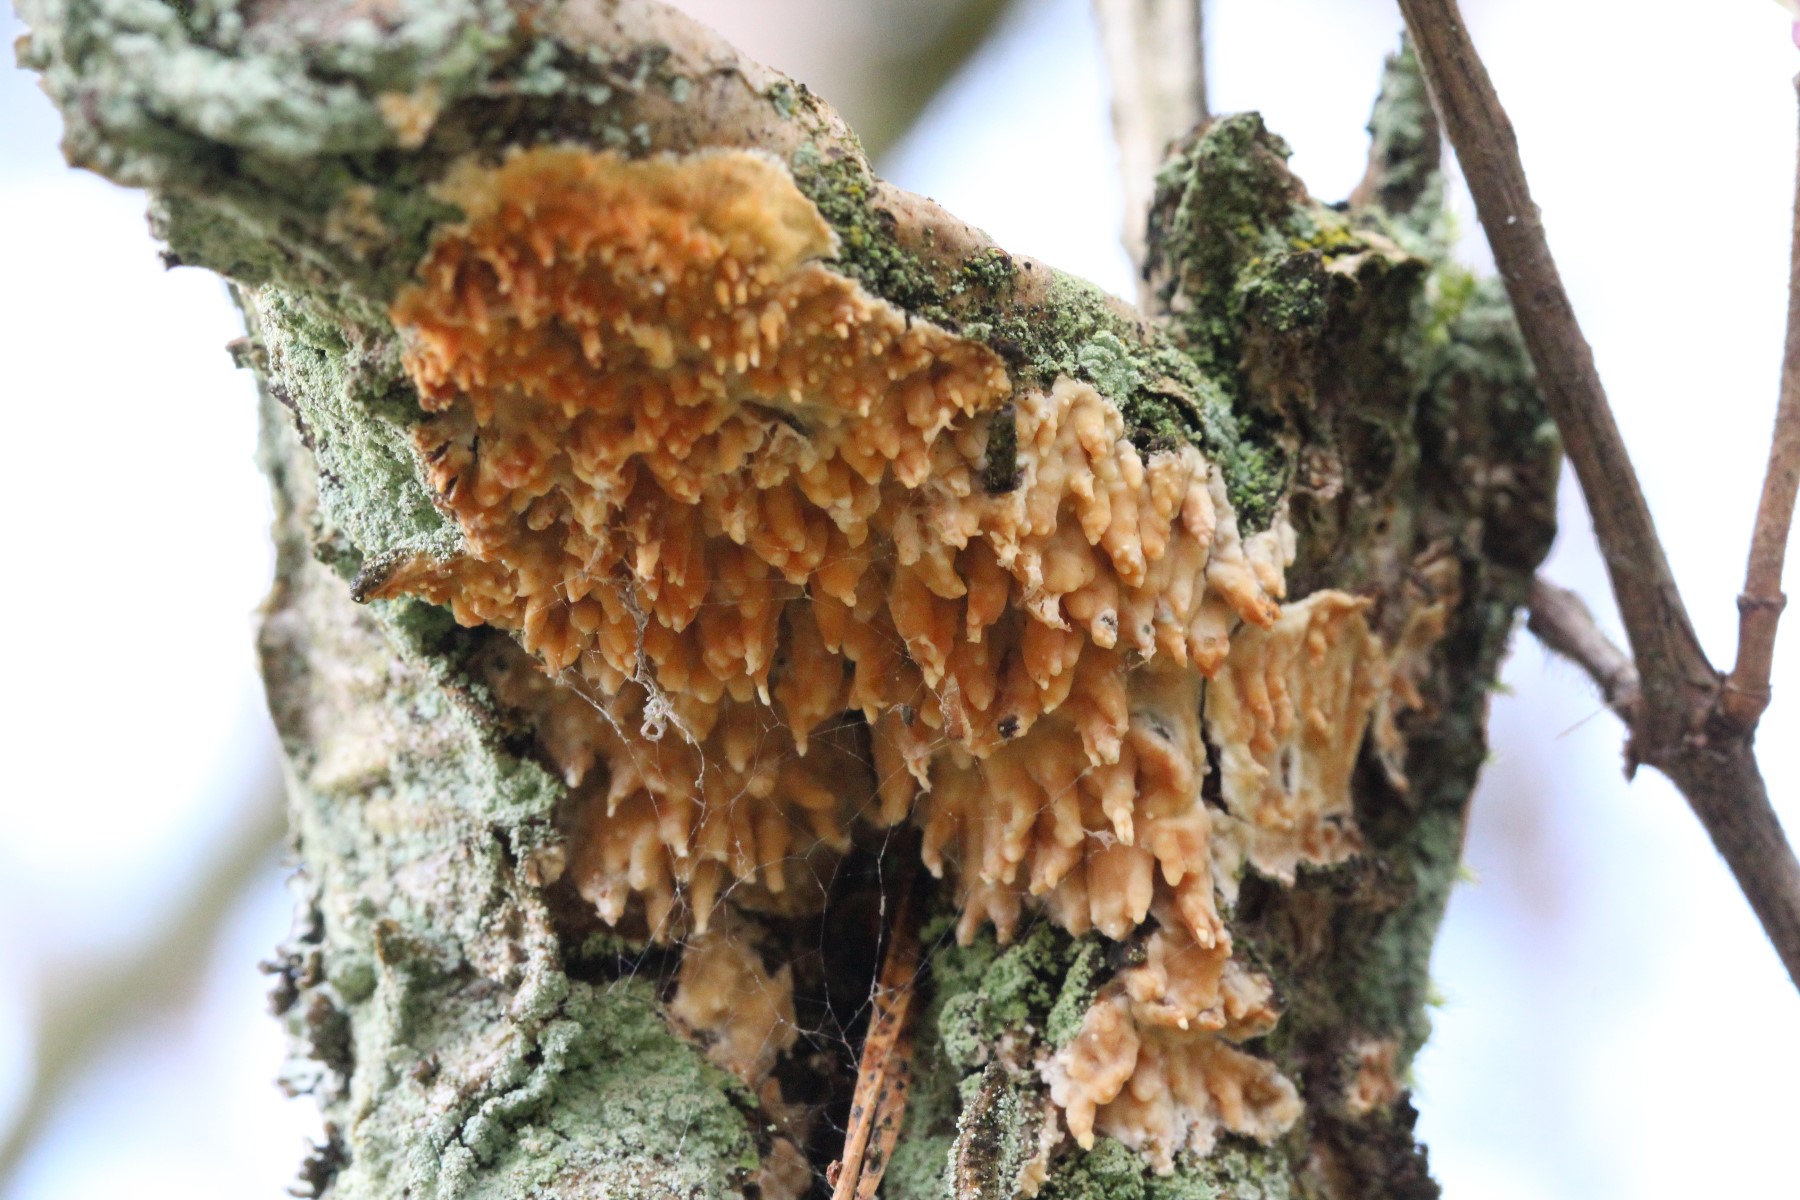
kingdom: Fungi
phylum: Basidiomycota
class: Agaricomycetes
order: Hymenochaetales
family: Schizoporaceae
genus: Xylodon
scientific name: Xylodon radula
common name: grovtandet kalkskind
